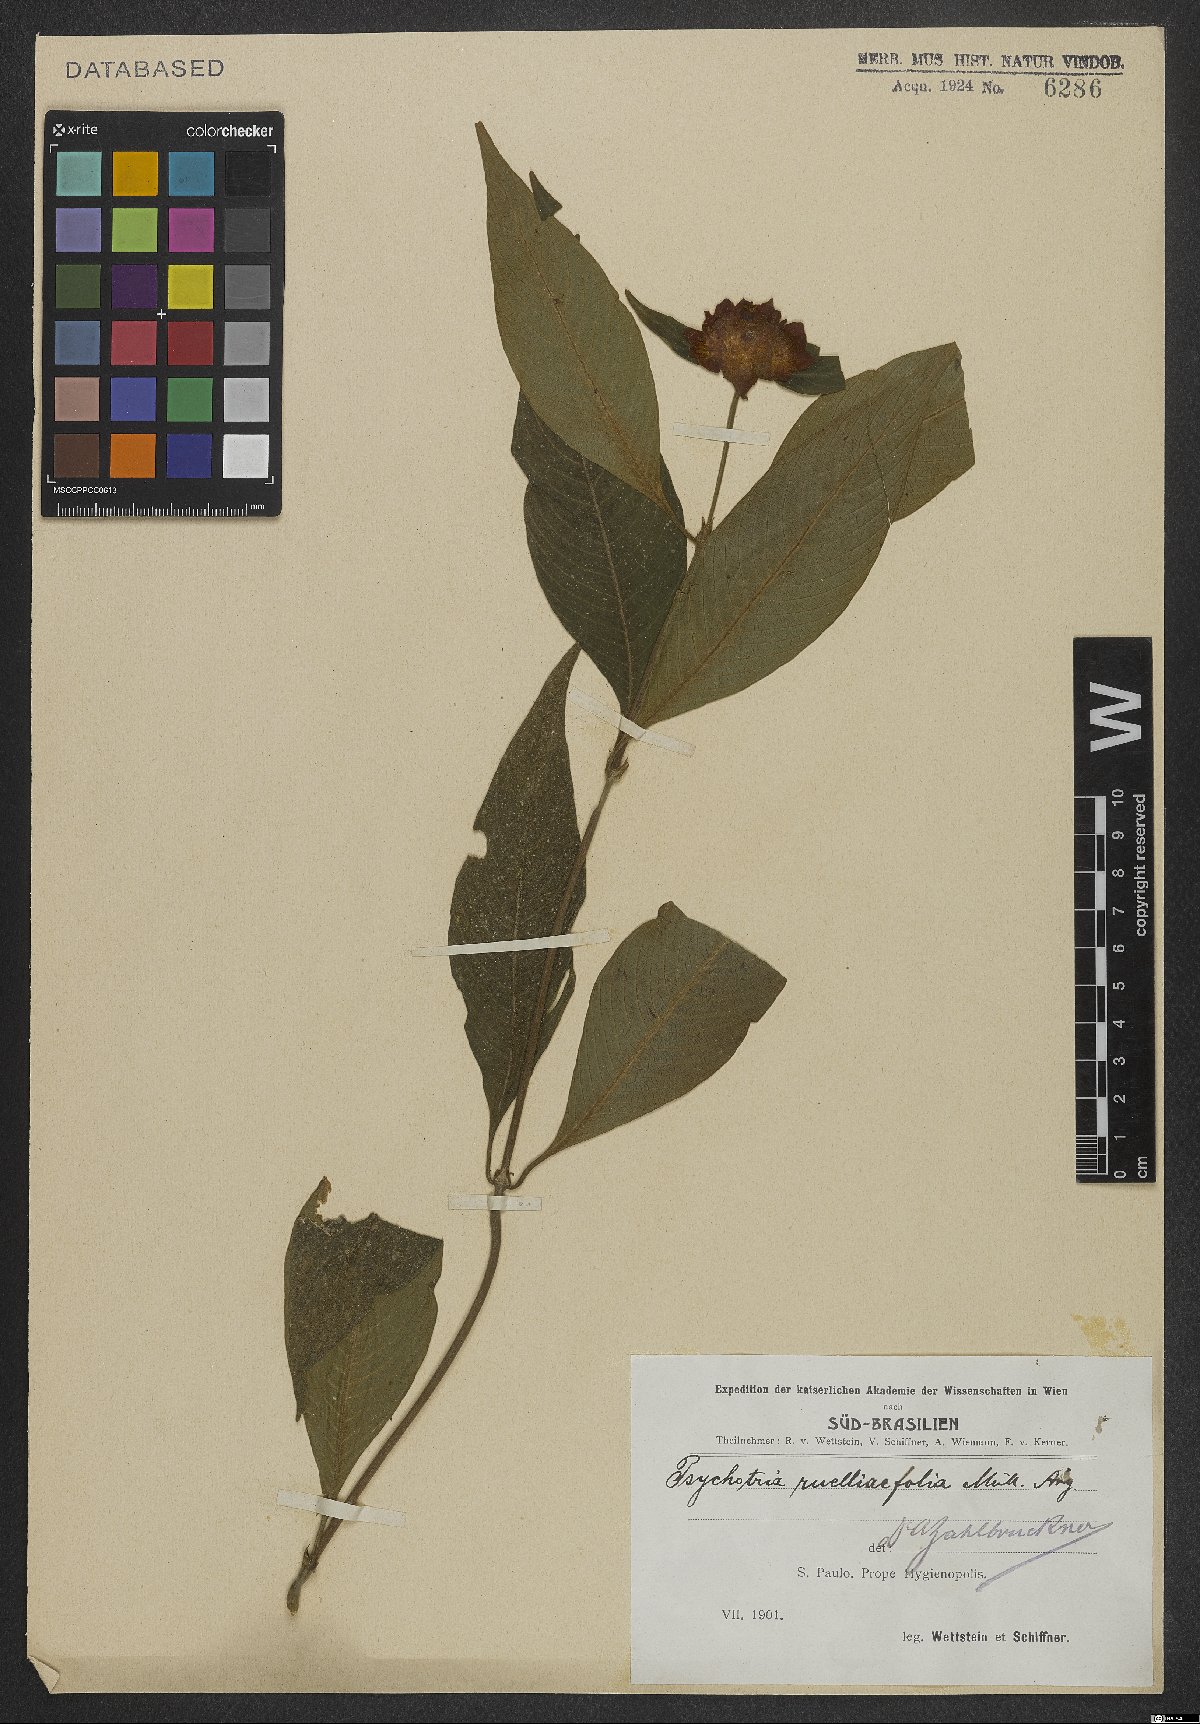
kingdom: Plantae
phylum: Tracheophyta
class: Magnoliopsida
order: Gentianales
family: Rubiaceae
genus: Palicourea
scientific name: Palicourea ruelliifolia
